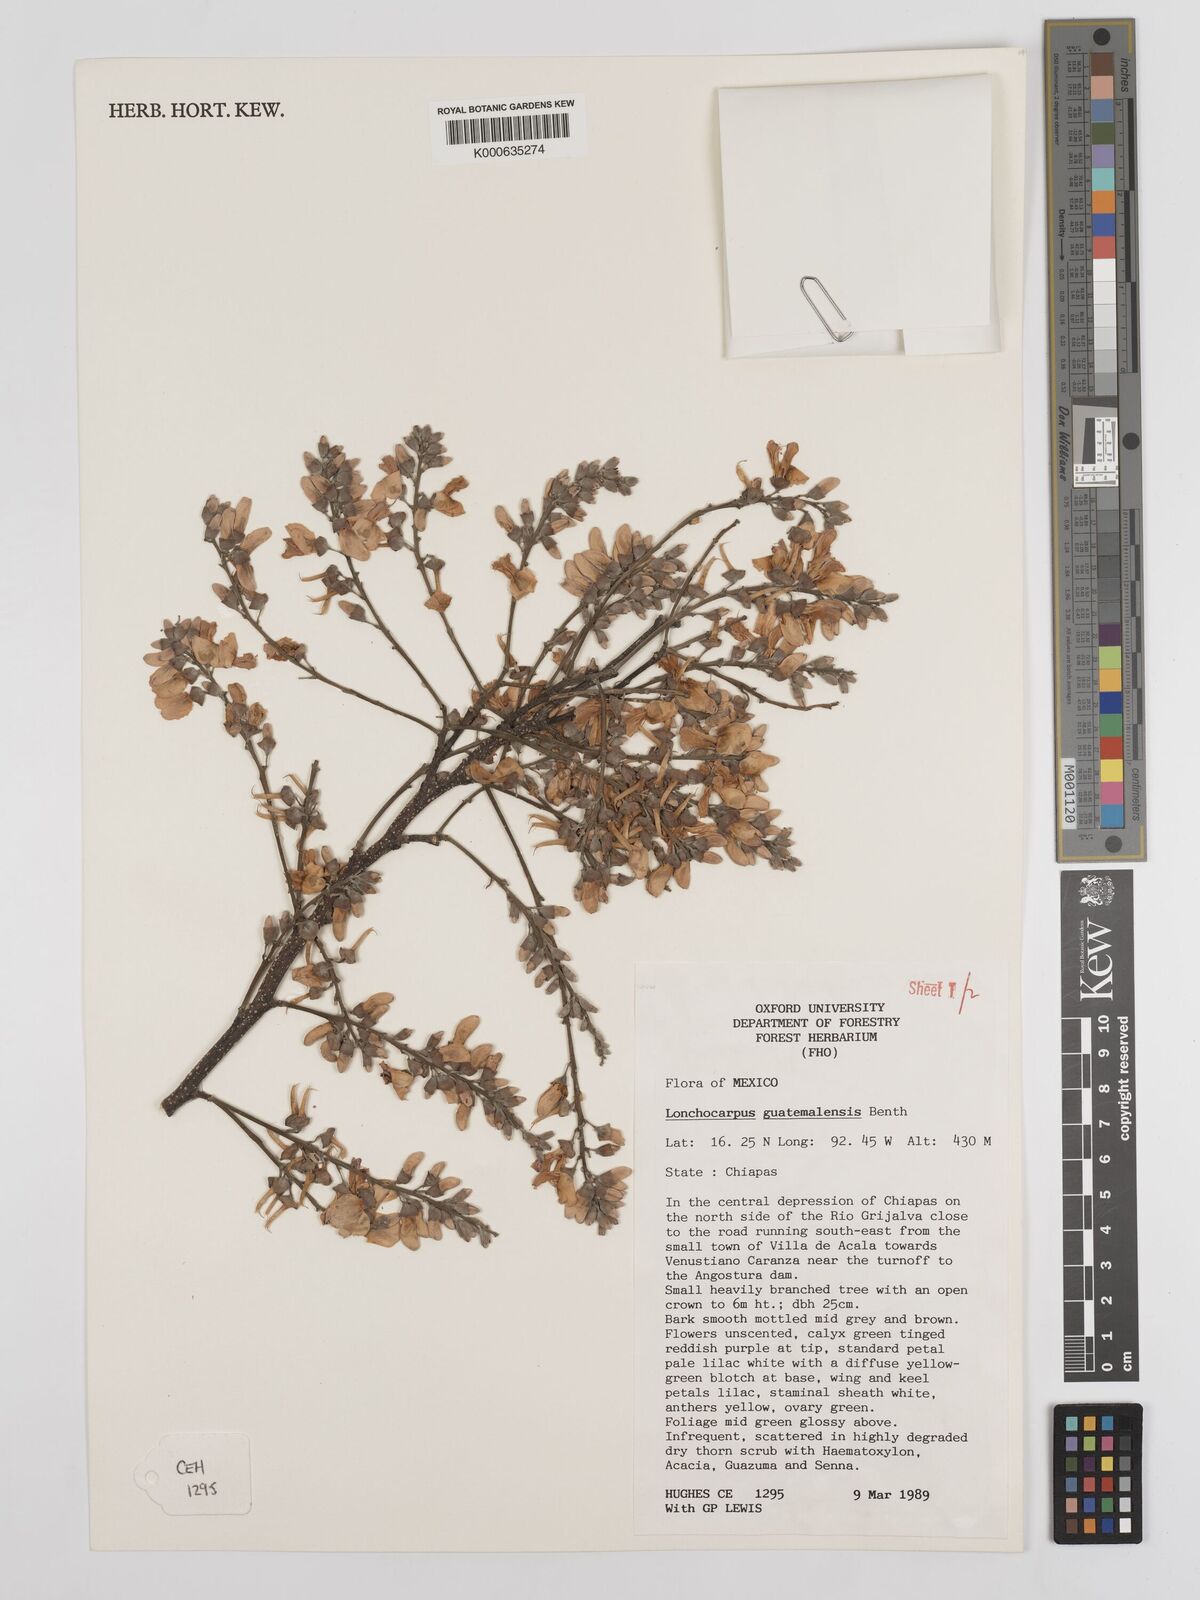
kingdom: Plantae
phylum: Tracheophyta
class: Magnoliopsida
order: Fabales
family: Fabaceae
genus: Lonchocarpus
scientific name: Lonchocarpus guatemalensis
